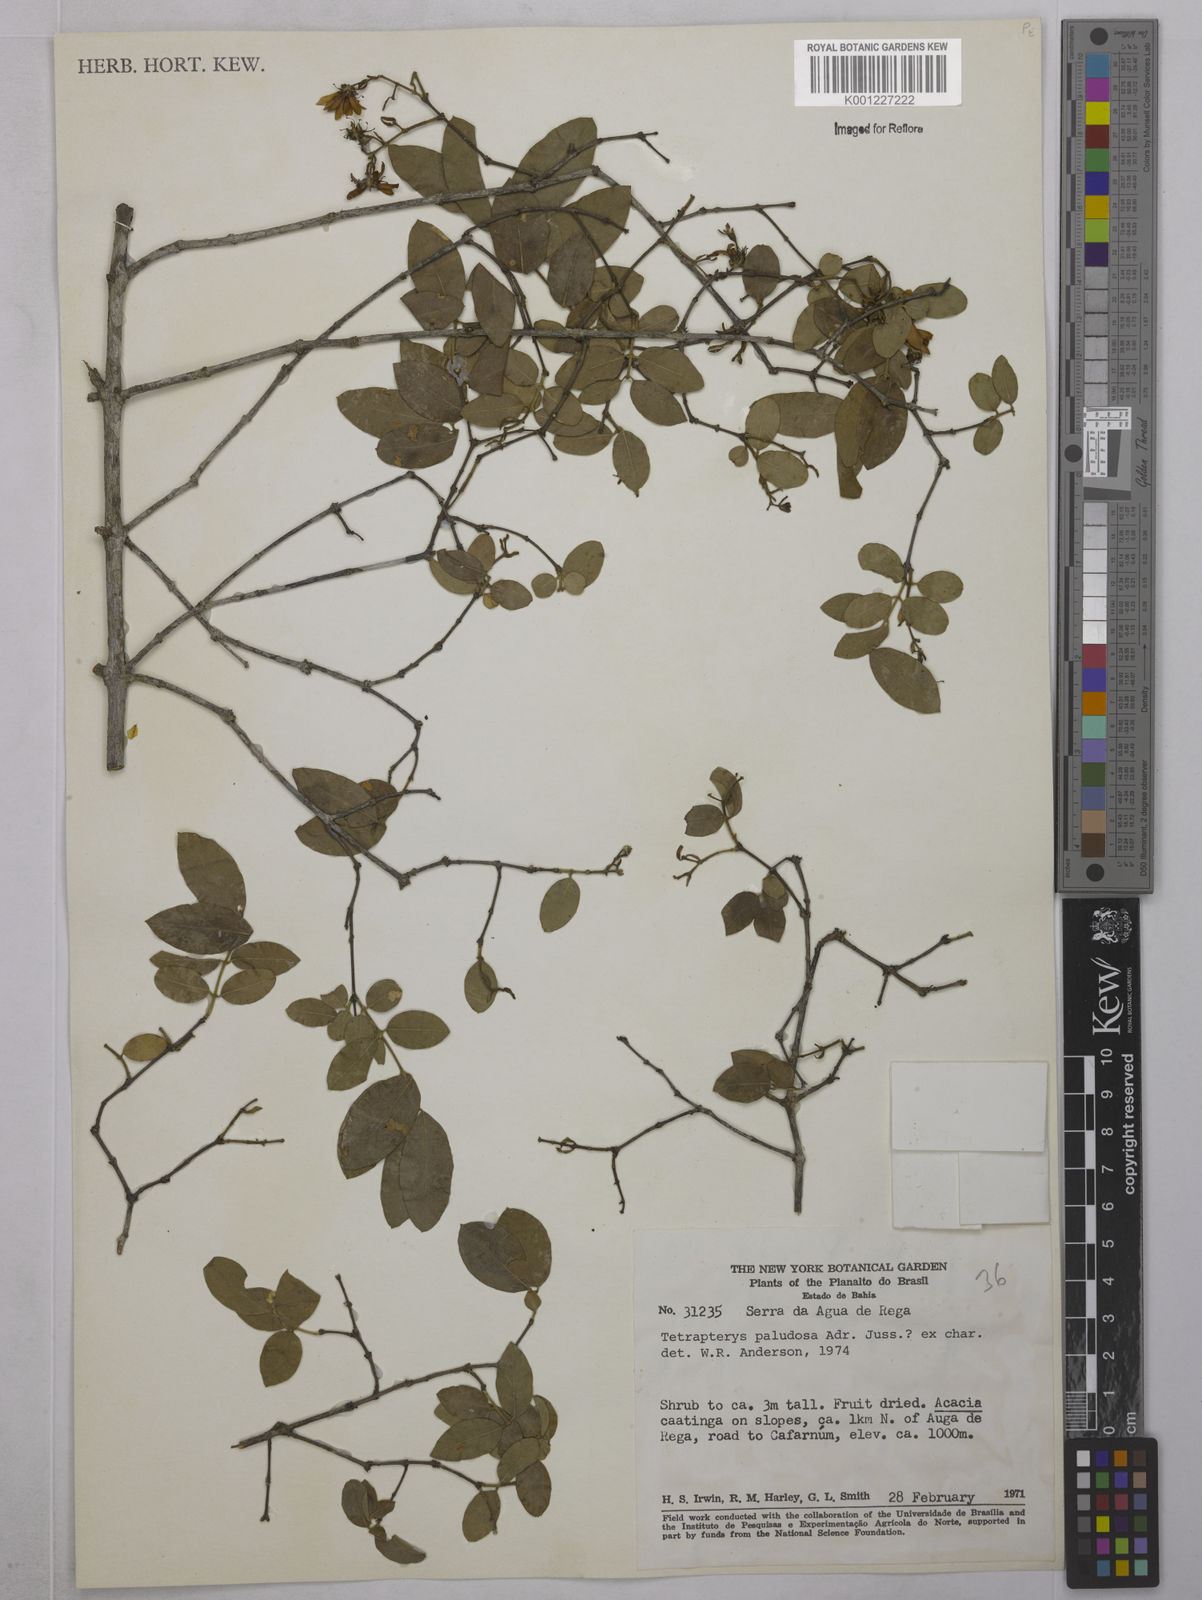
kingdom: Plantae
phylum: Tracheophyta
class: Magnoliopsida
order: Malpighiales
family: Malpighiaceae
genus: Glicophyllum
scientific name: Glicophyllum paludosum
